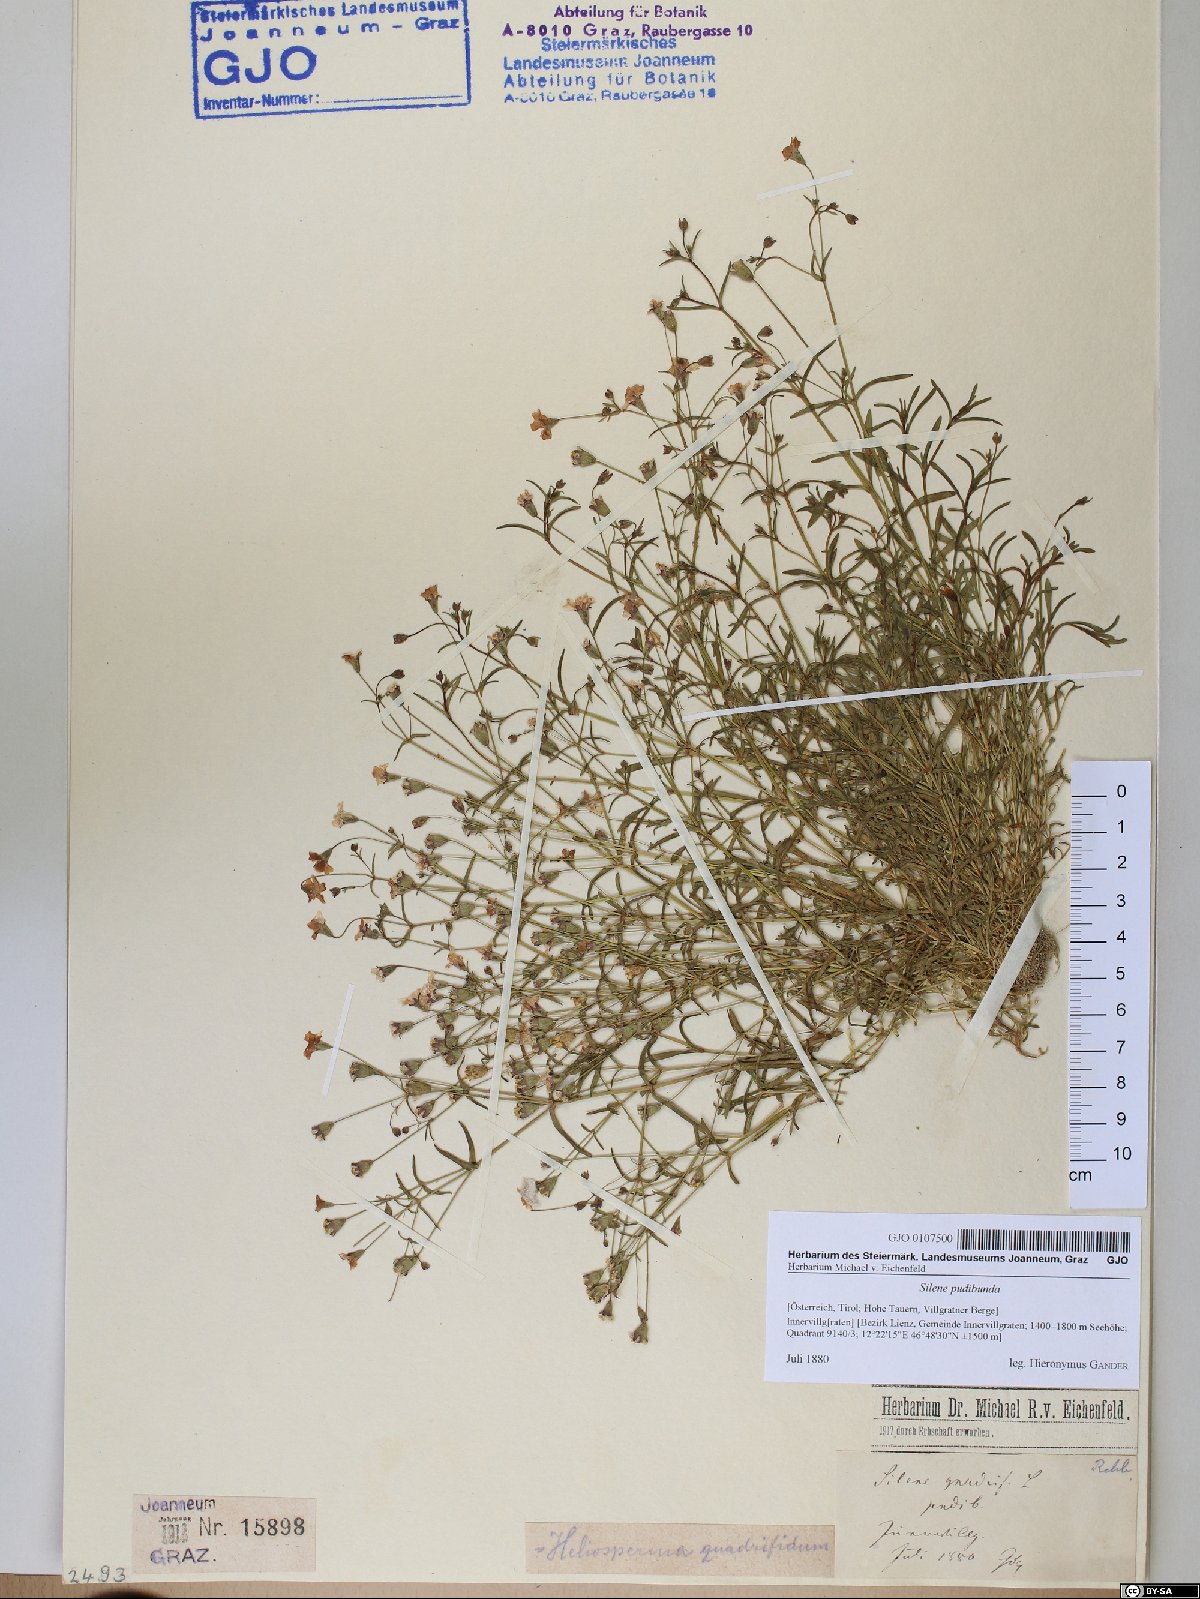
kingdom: Plantae
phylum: Tracheophyta
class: Magnoliopsida
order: Caryophyllales
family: Caryophyllaceae
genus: Heliosperma
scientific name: Heliosperma pudibundum
